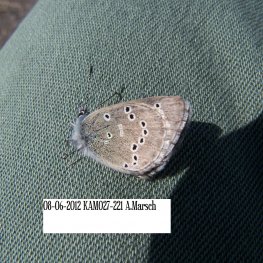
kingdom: Animalia
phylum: Arthropoda
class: Insecta
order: Lepidoptera
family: Lycaenidae
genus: Glaucopsyche
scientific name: Glaucopsyche lygdamus
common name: Silvery Blue
